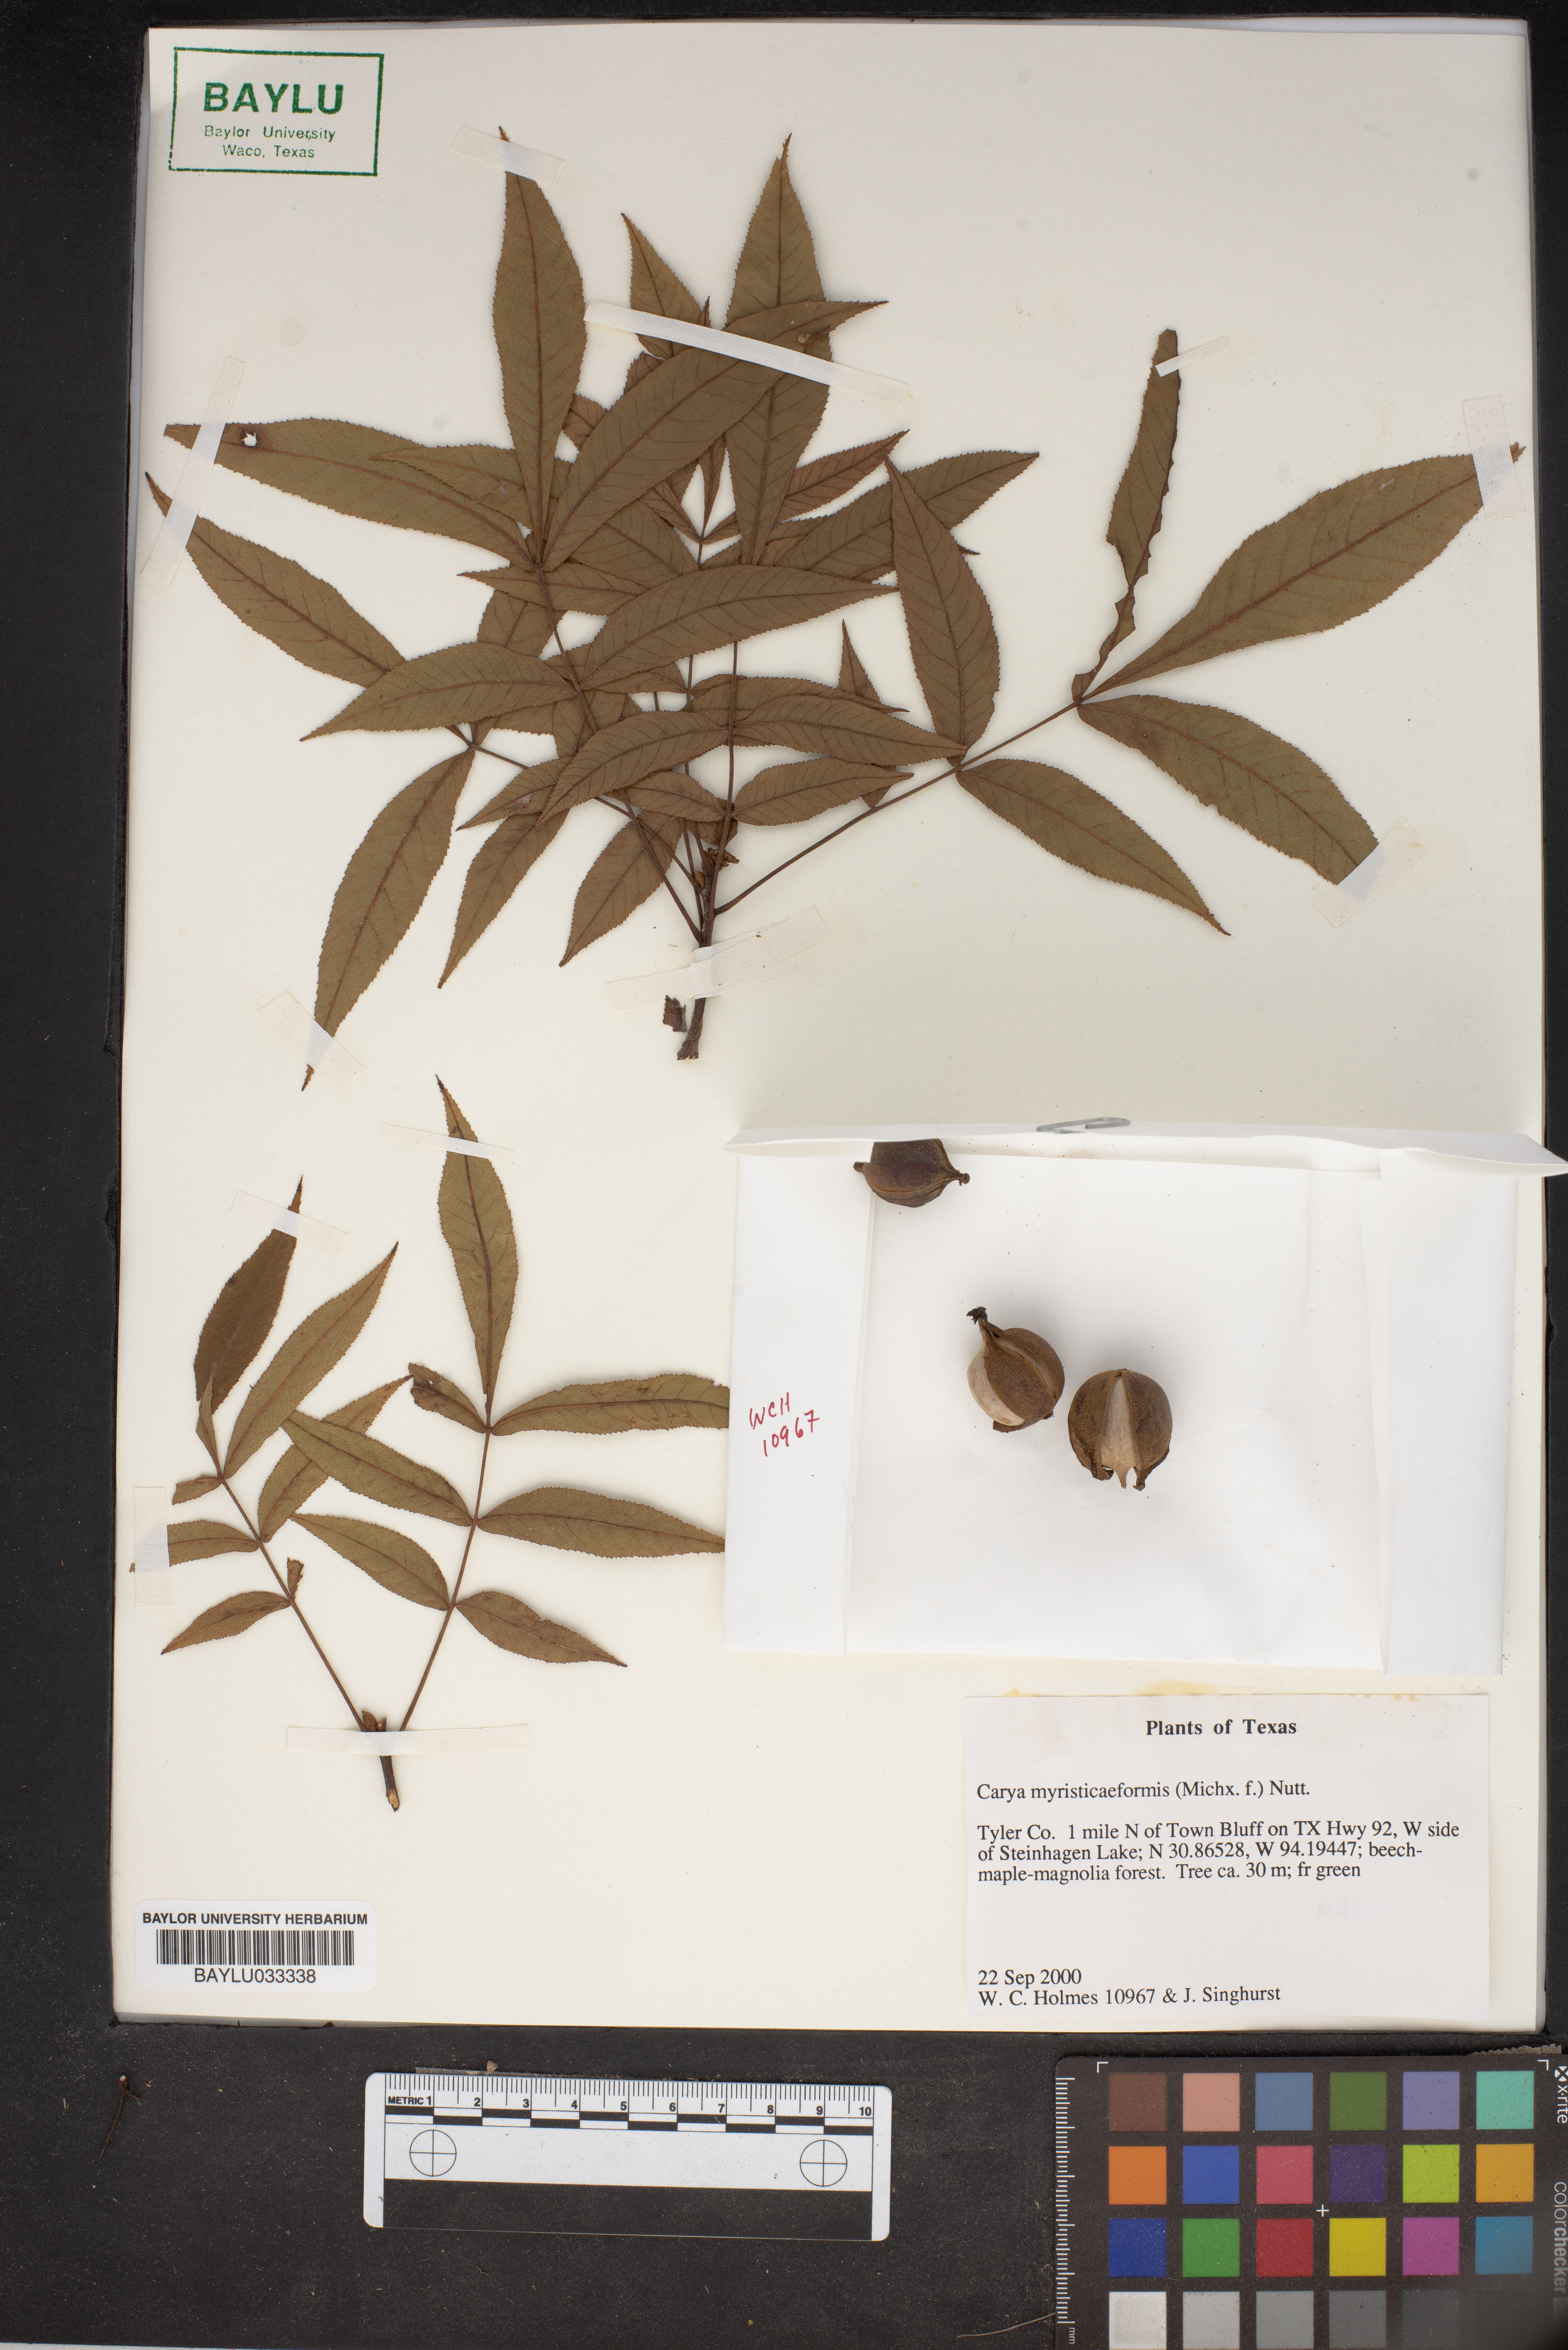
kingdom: Plantae
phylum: Tracheophyta
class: Magnoliopsida
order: Fagales
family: Juglandaceae
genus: Carya
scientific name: Carya myristiciformis
